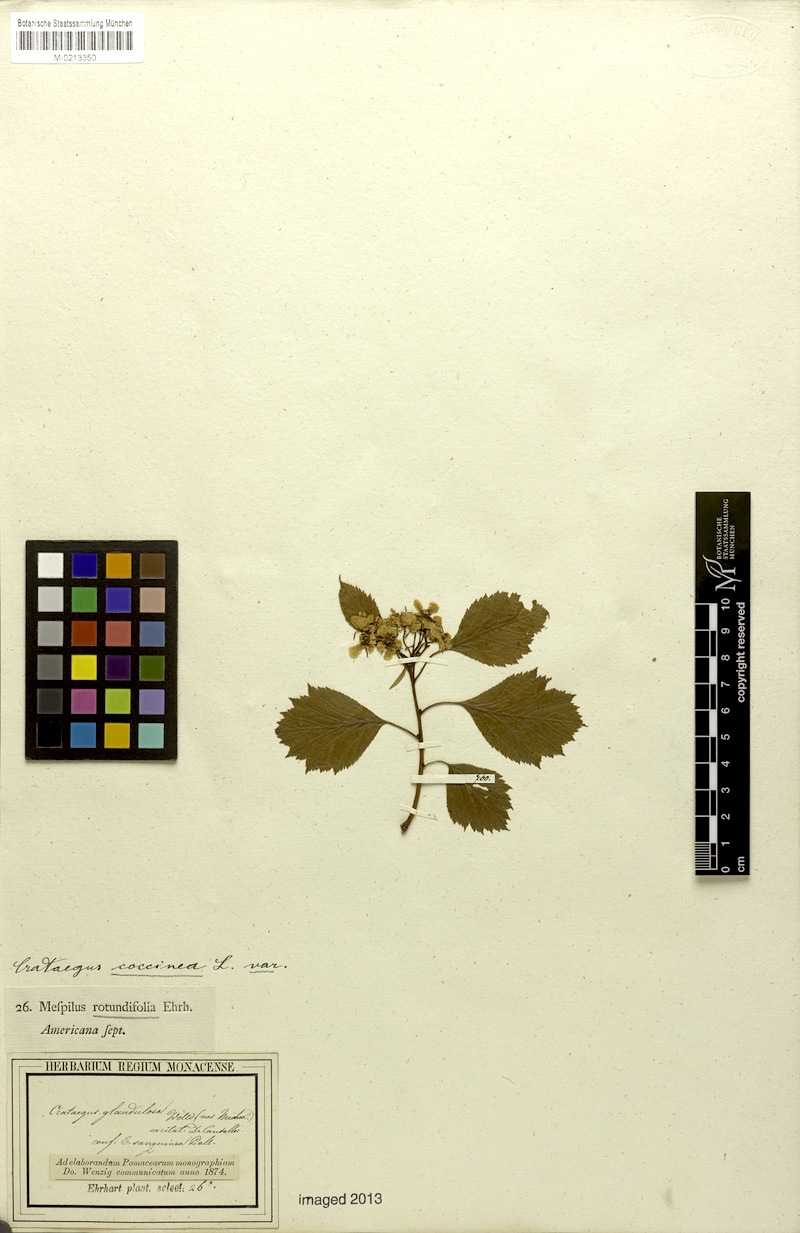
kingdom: Plantae
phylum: Tracheophyta
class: Magnoliopsida
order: Rosales
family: Rosaceae
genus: Crataegus
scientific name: Crataegus chrysocarpa
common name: Fire-berry hawthorn
